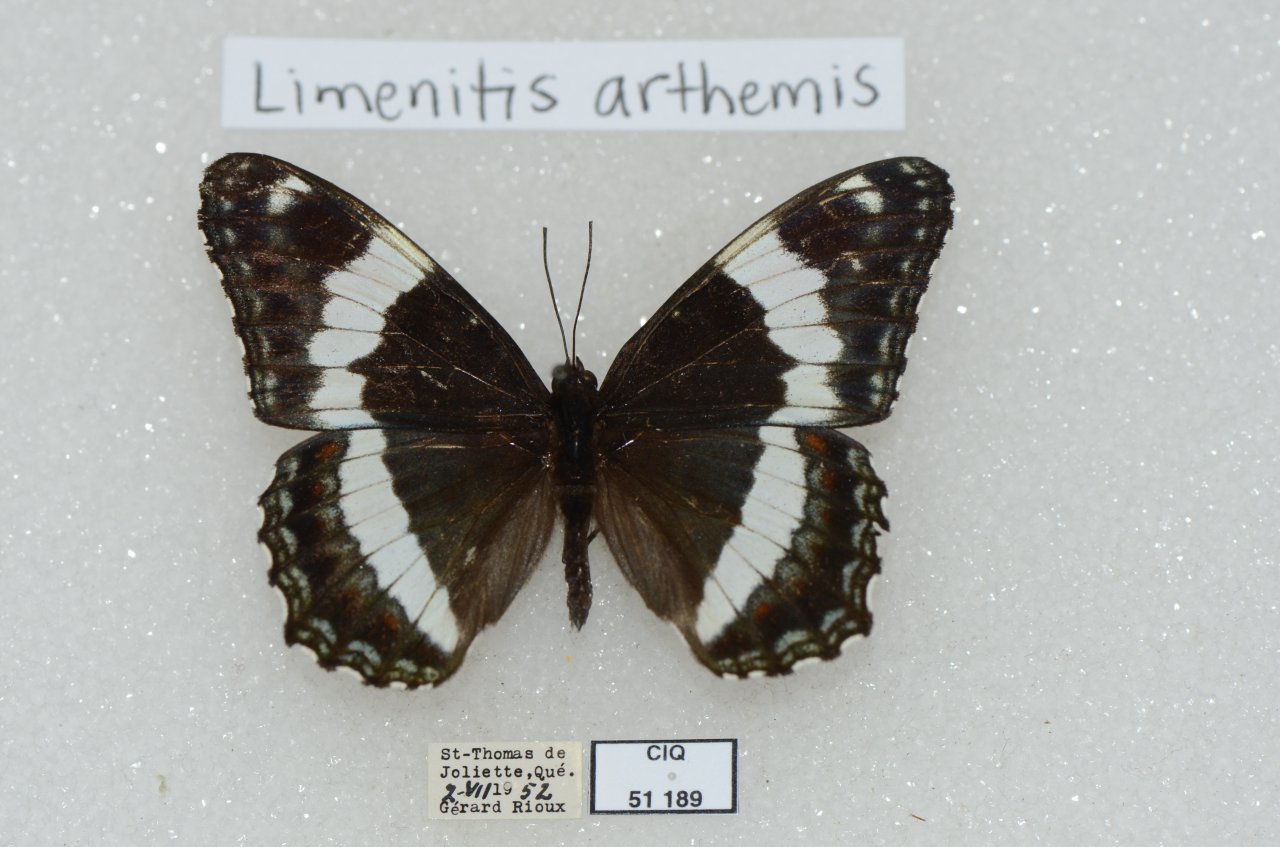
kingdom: Animalia
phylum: Arthropoda
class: Insecta
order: Lepidoptera
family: Nymphalidae
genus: Limenitis
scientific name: Limenitis arthemis
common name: Red-spotted Admiral
